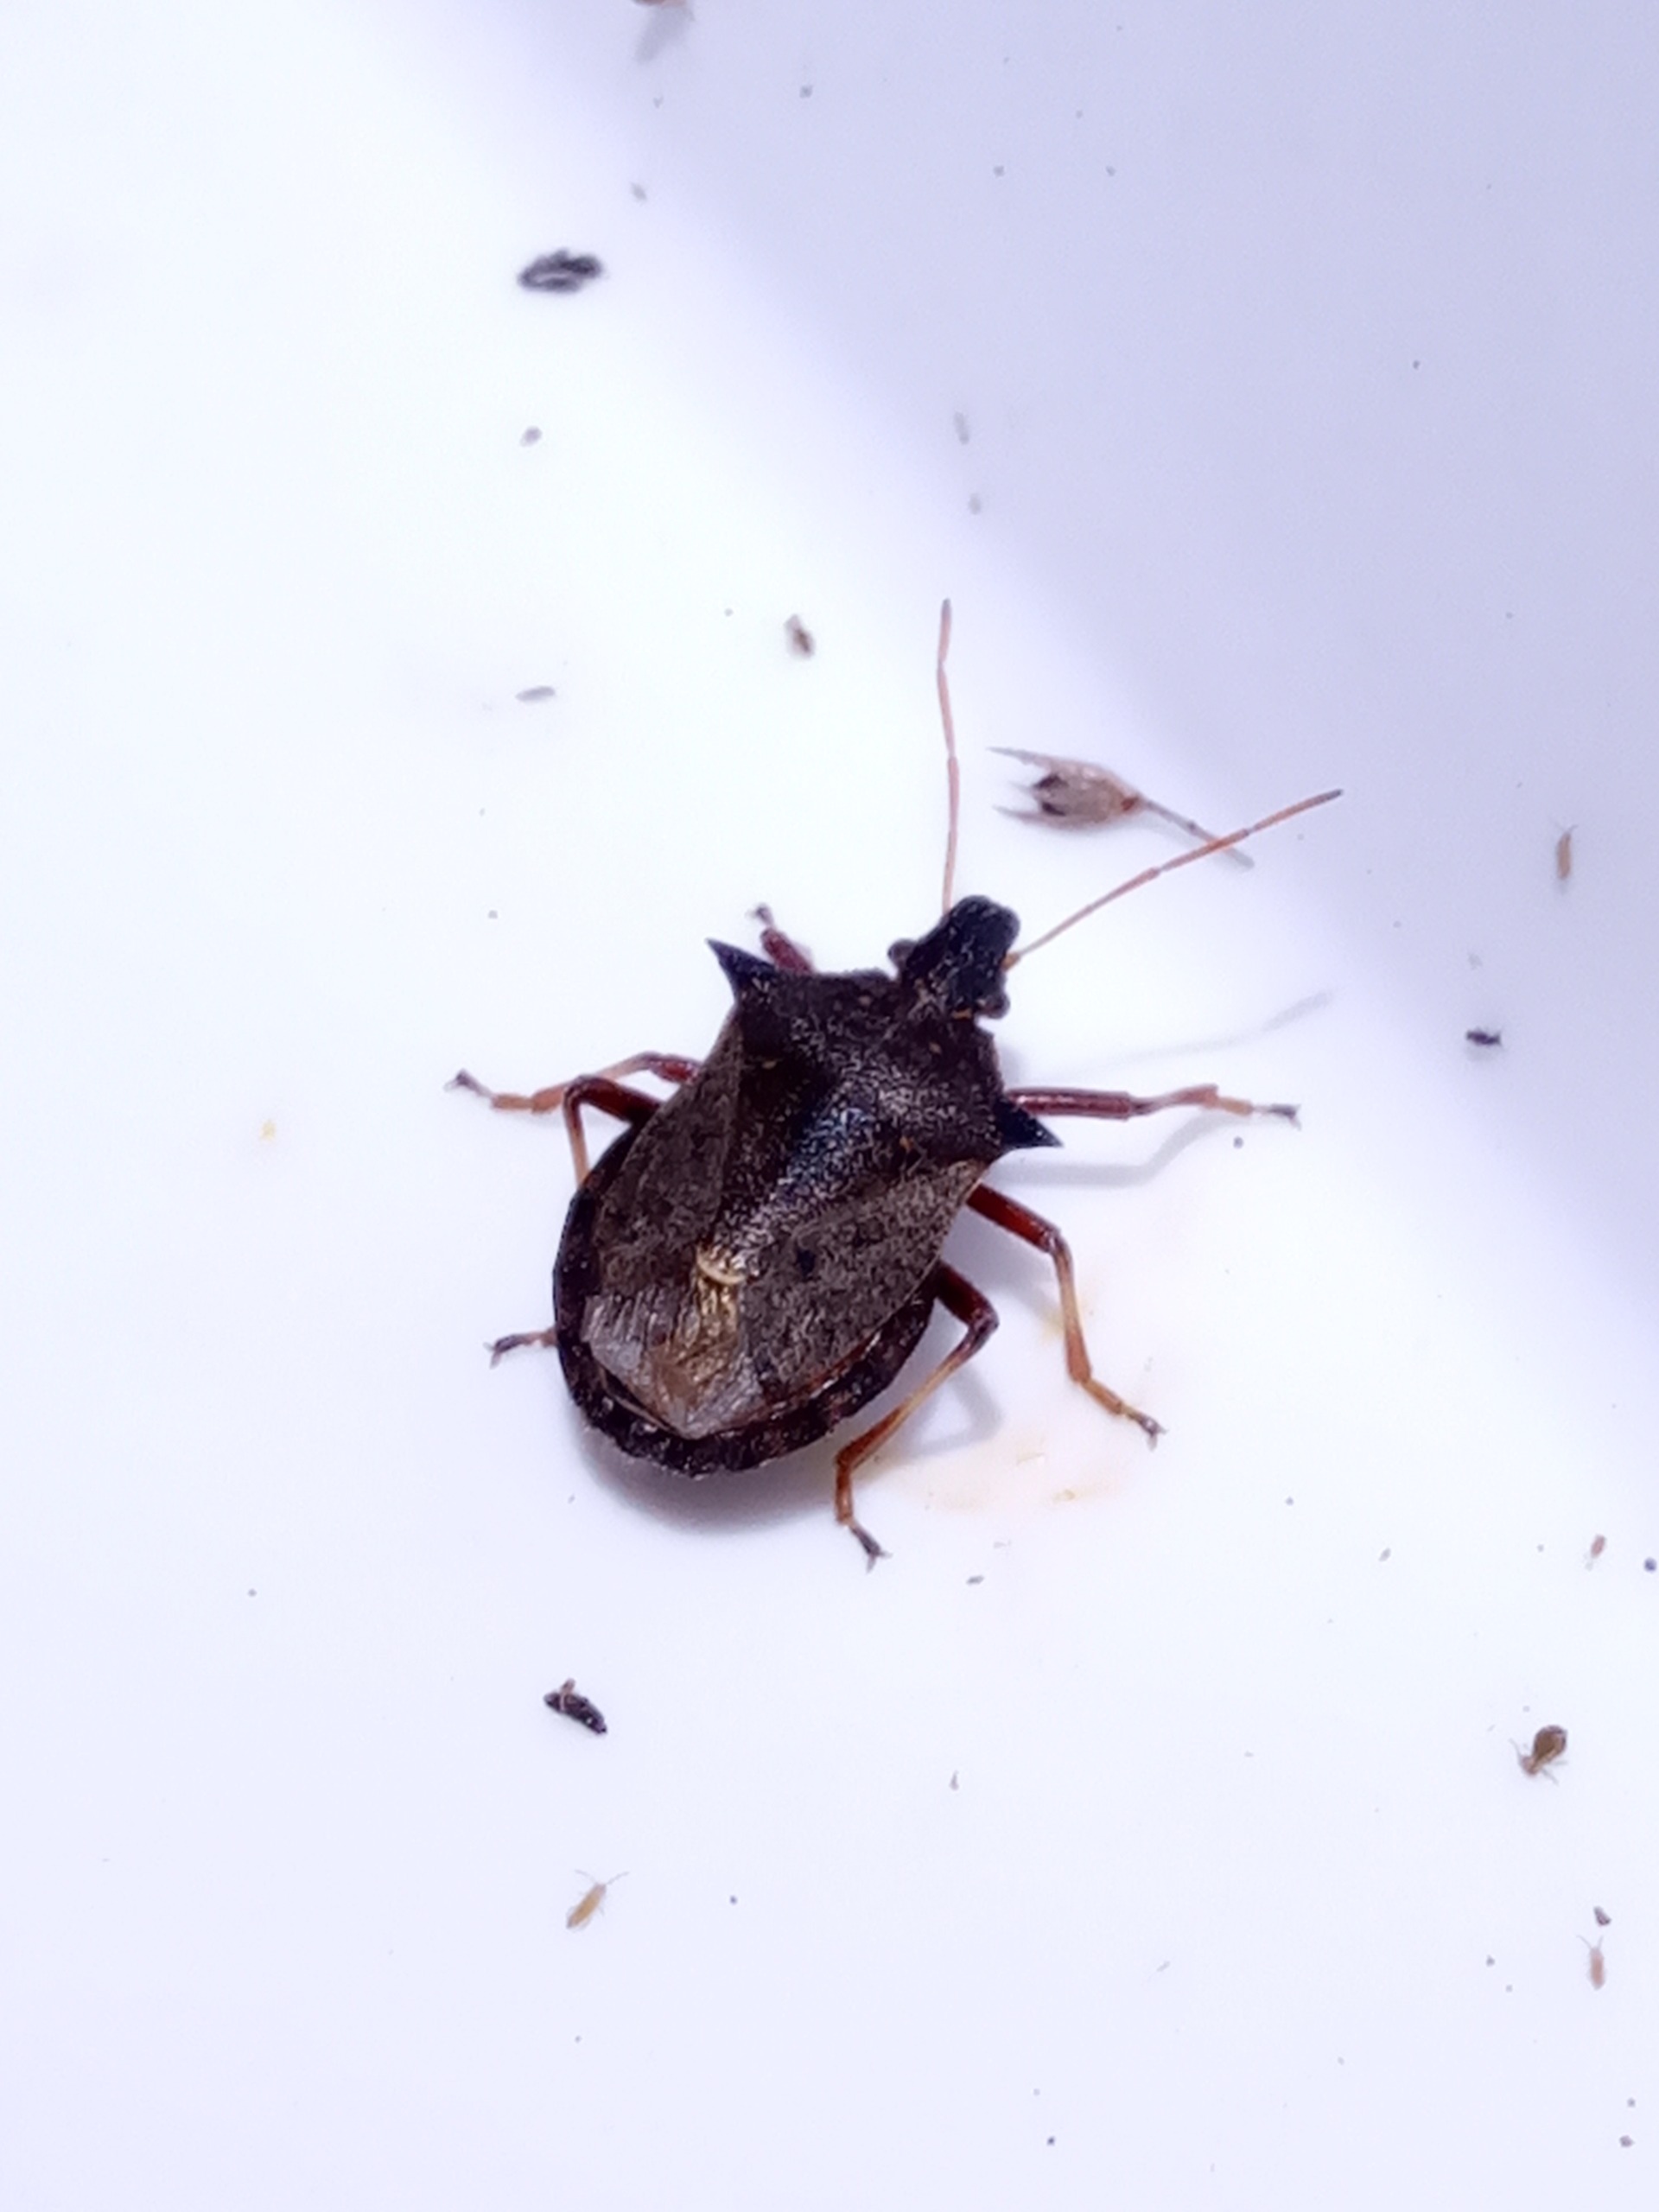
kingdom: Animalia
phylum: Arthropoda
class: Insecta
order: Hemiptera
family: Pentatomidae
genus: Picromerus
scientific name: Picromerus bidens
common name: Torntæge
